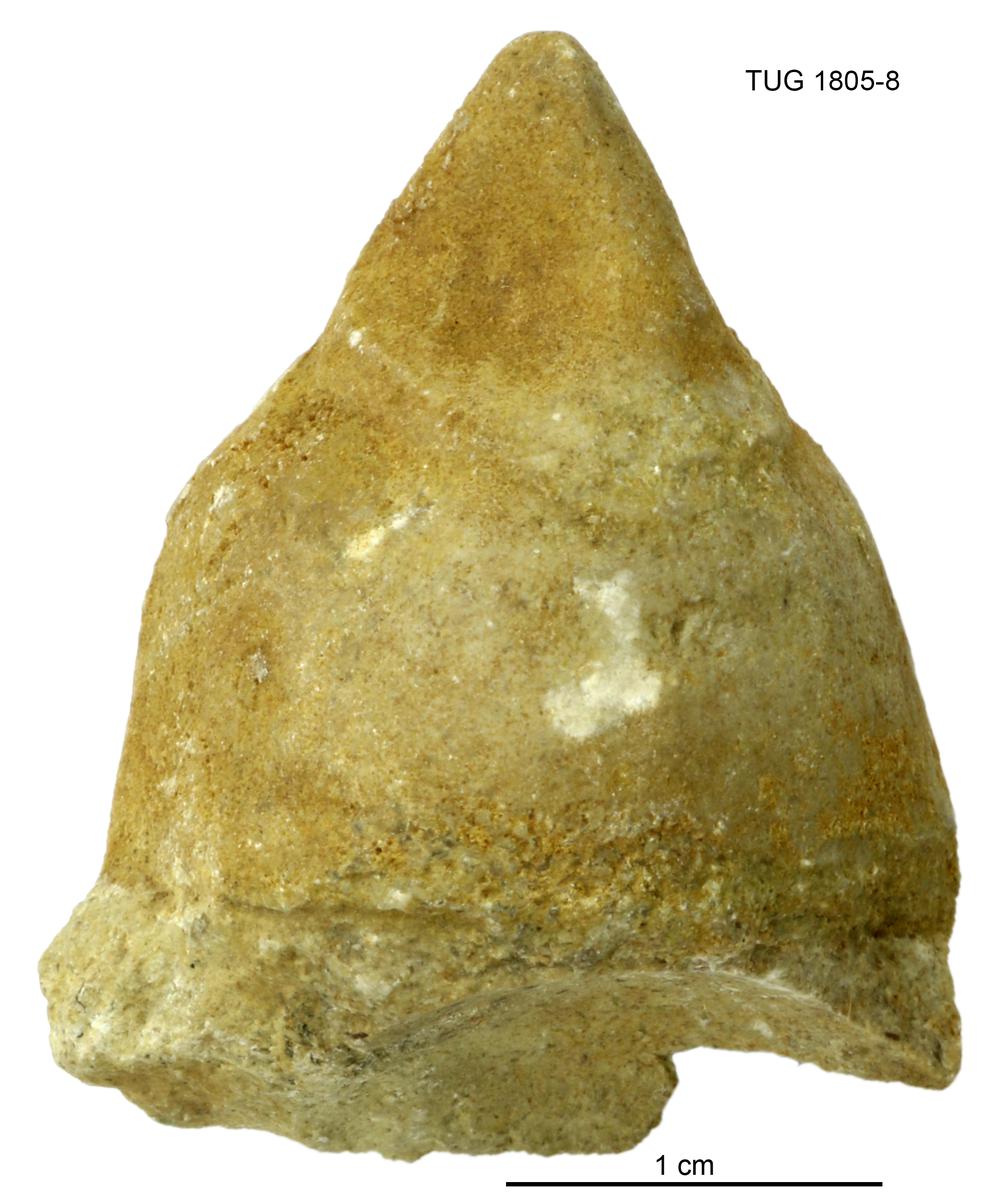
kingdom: Animalia
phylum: Mollusca
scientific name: Mollusca
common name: Mollusca
